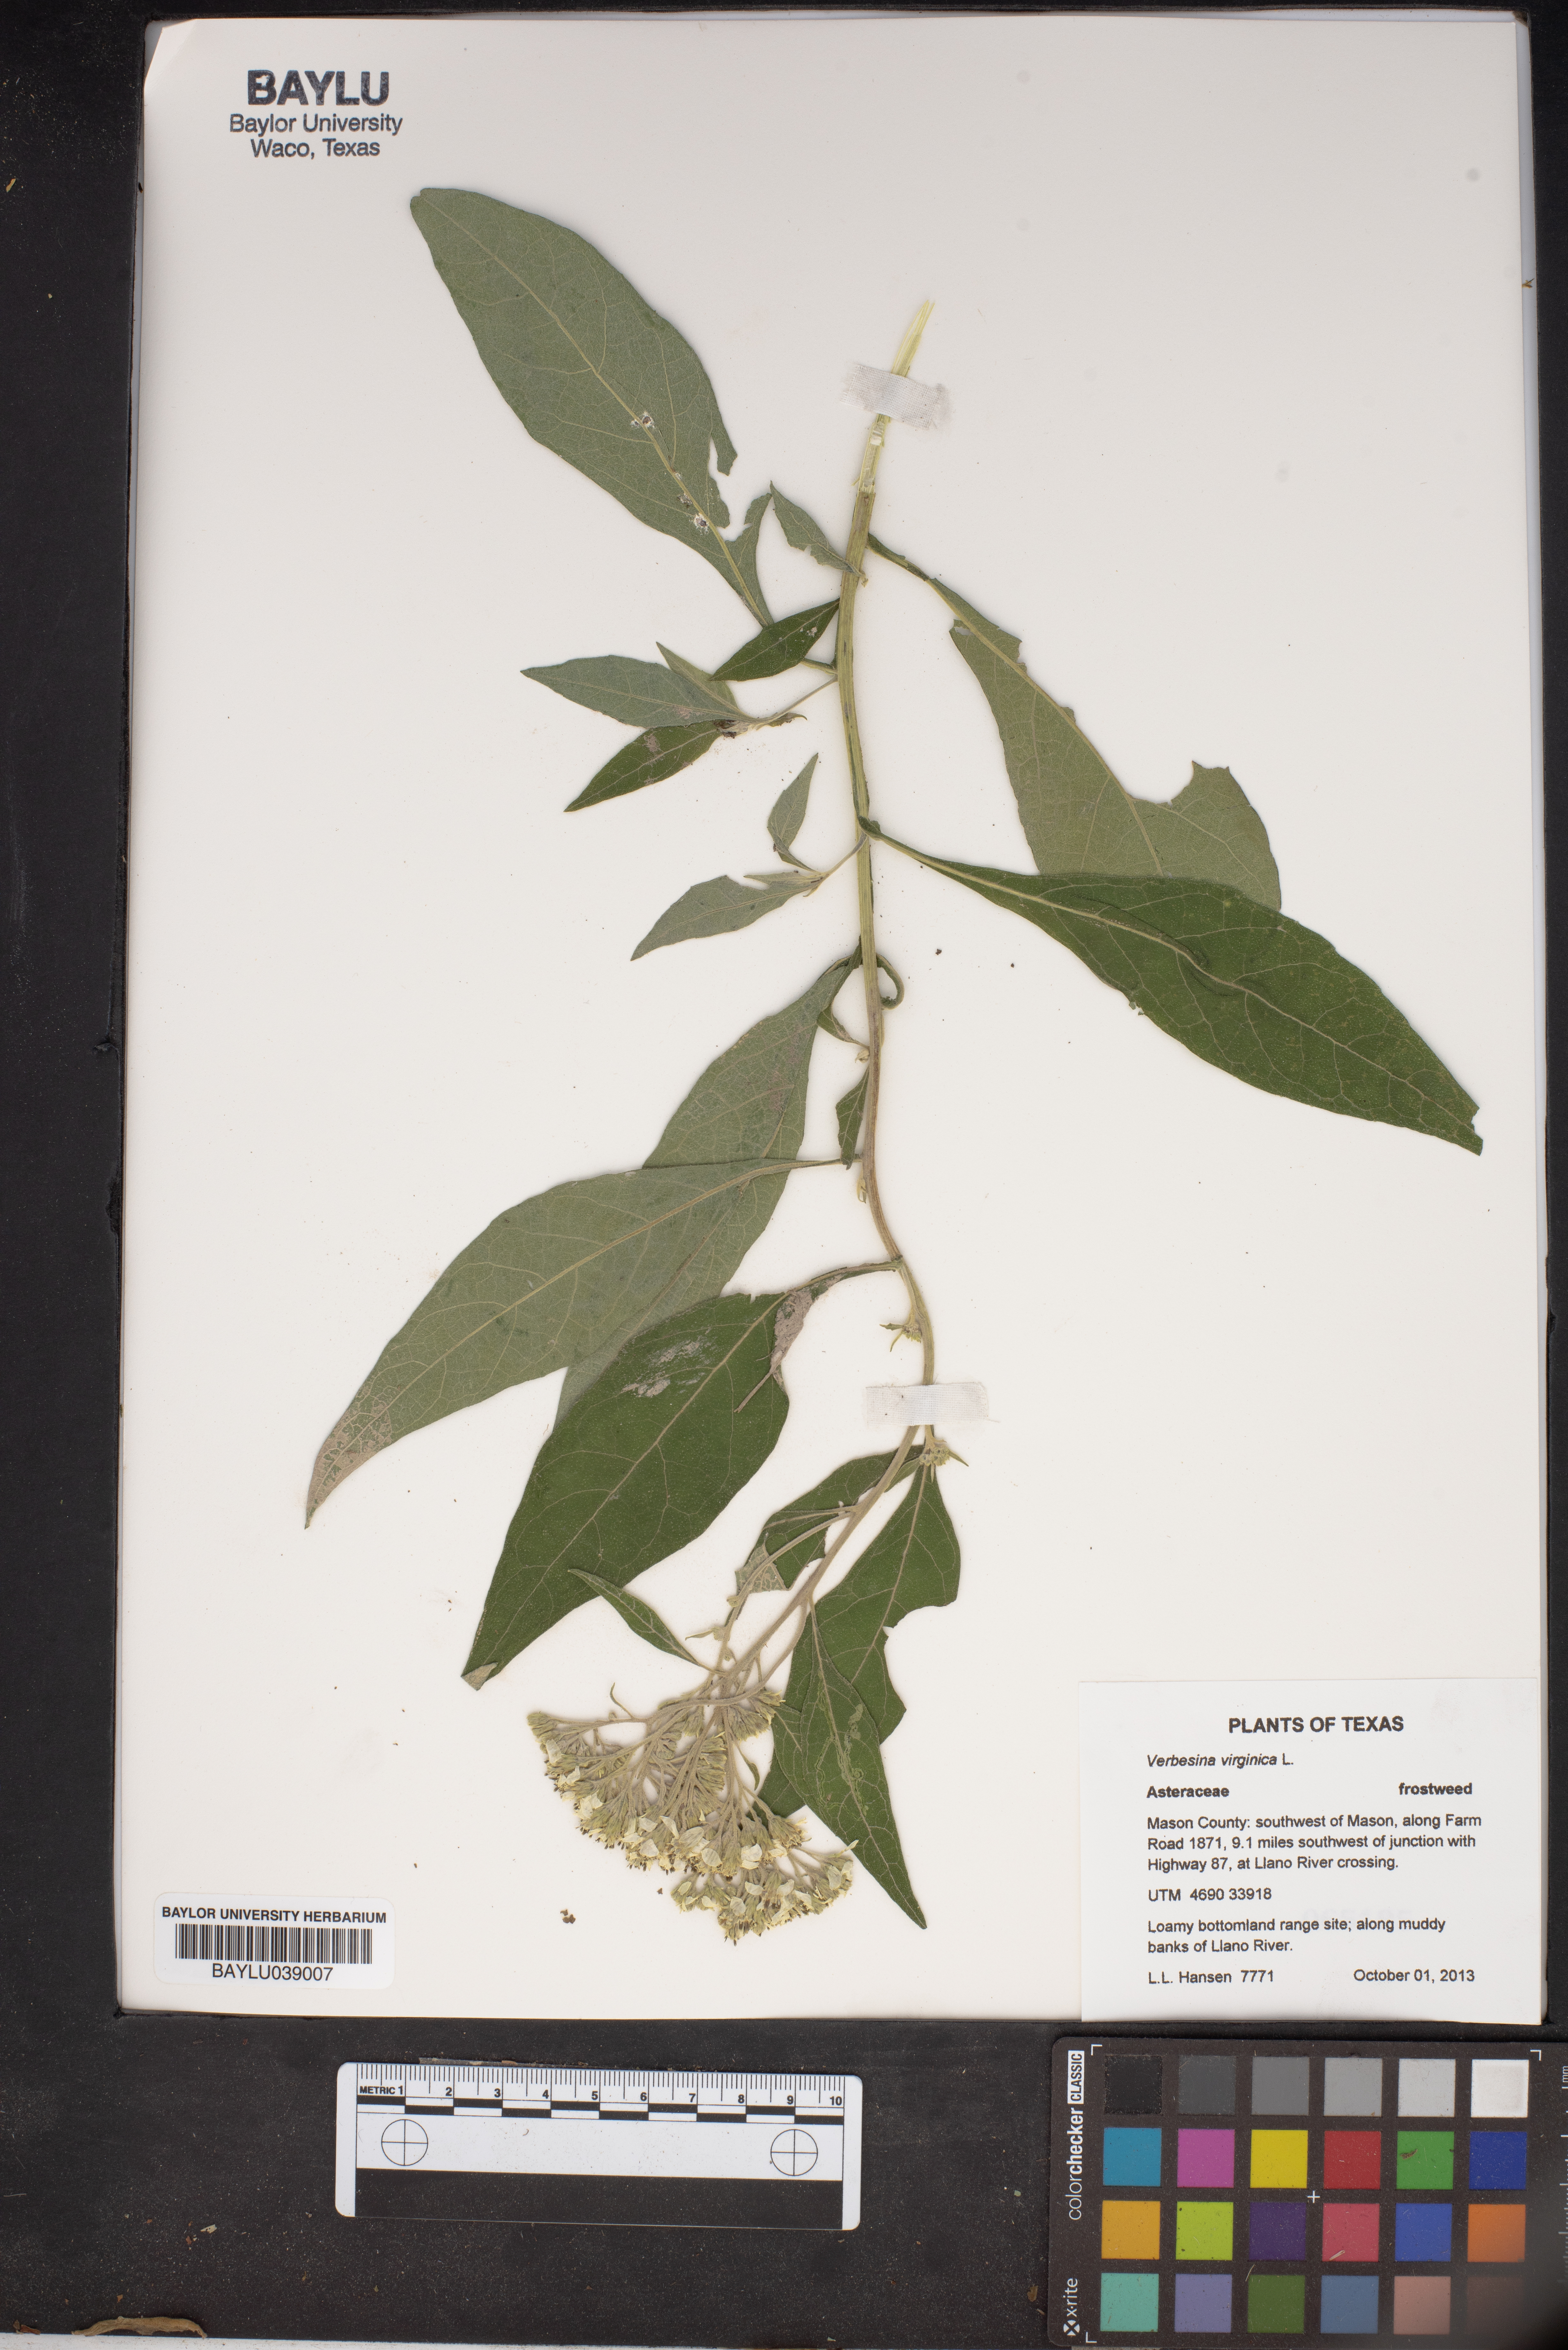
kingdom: Plantae
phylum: Tracheophyta
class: Magnoliopsida
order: Asterales
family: Asteraceae
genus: Verbesina
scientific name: Verbesina virginica
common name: Frostweed
